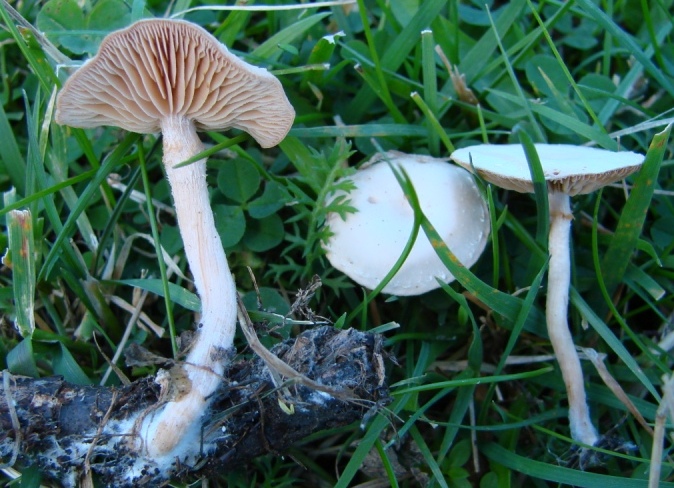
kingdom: Fungi
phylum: Basidiomycota
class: Agaricomycetes
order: Agaricales
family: Tubariaceae
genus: Tubaria
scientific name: Tubaria furfuracea
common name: kliddet fnughat
